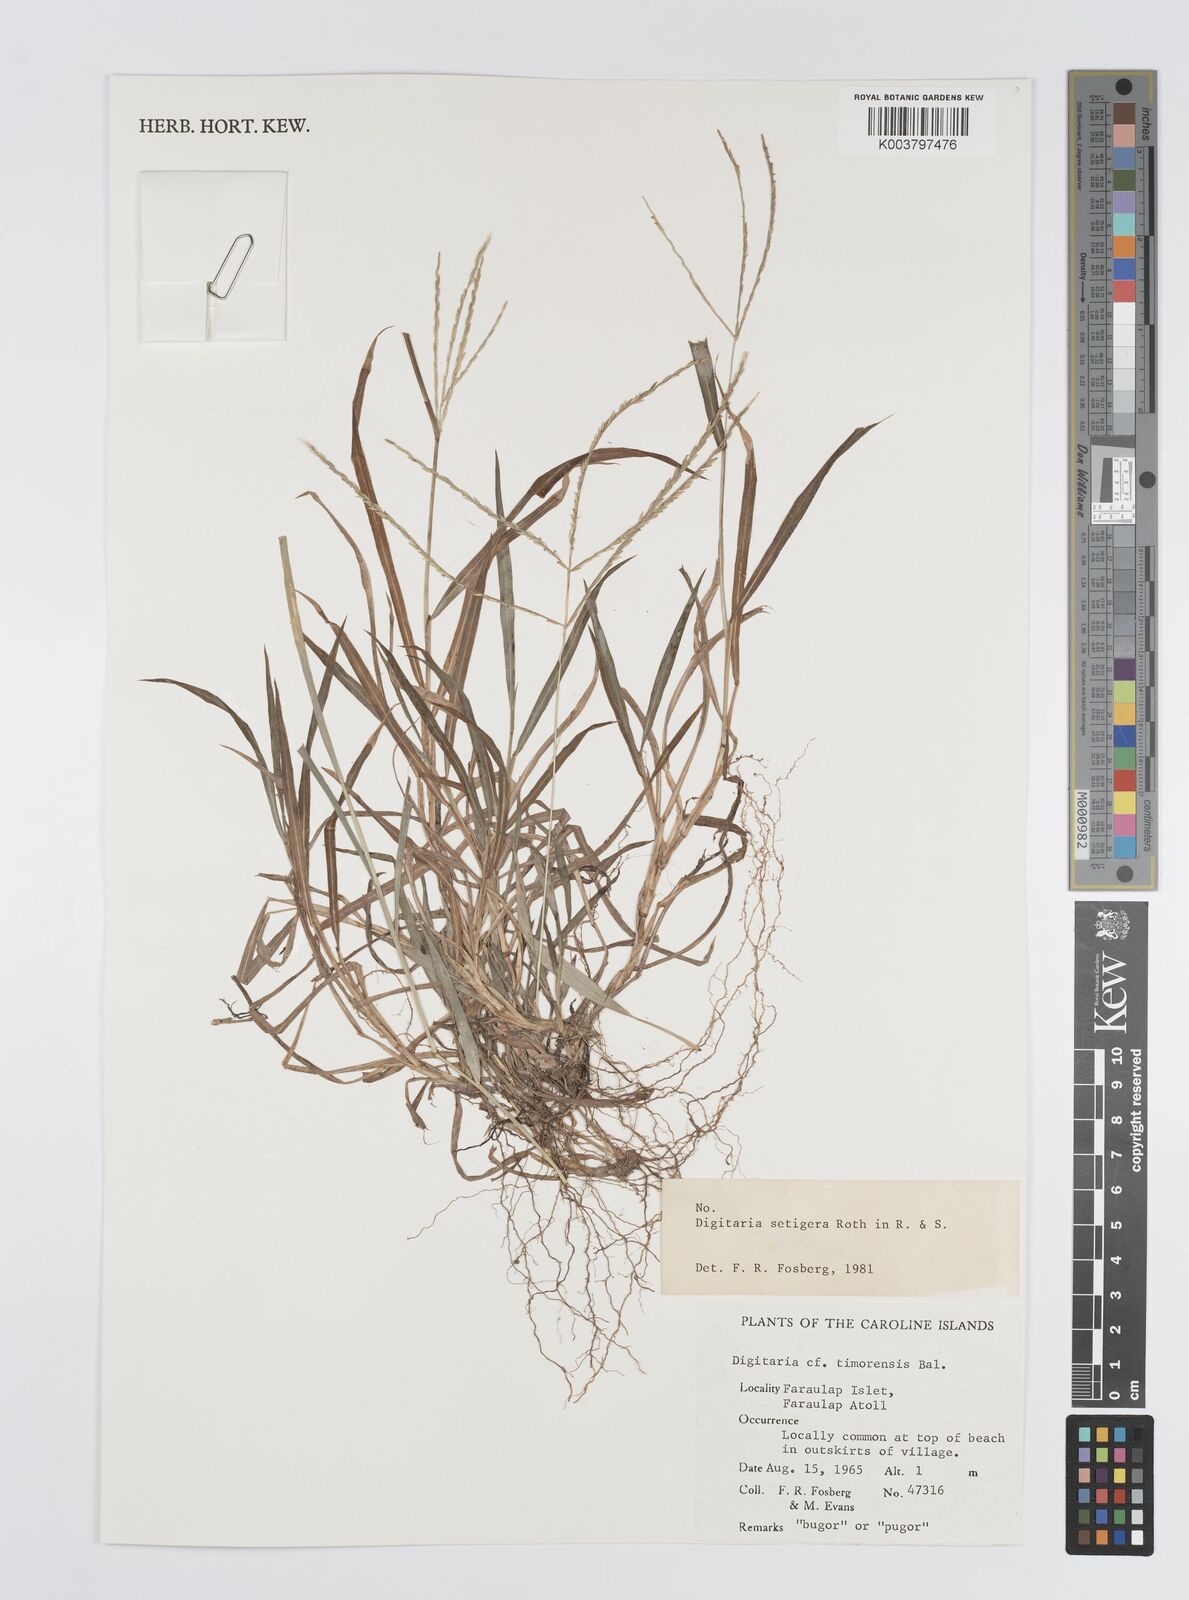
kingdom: Plantae
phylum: Tracheophyta
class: Liliopsida
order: Poales
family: Poaceae
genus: Digitaria
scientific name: Digitaria setigera
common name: East indian crabgrass
